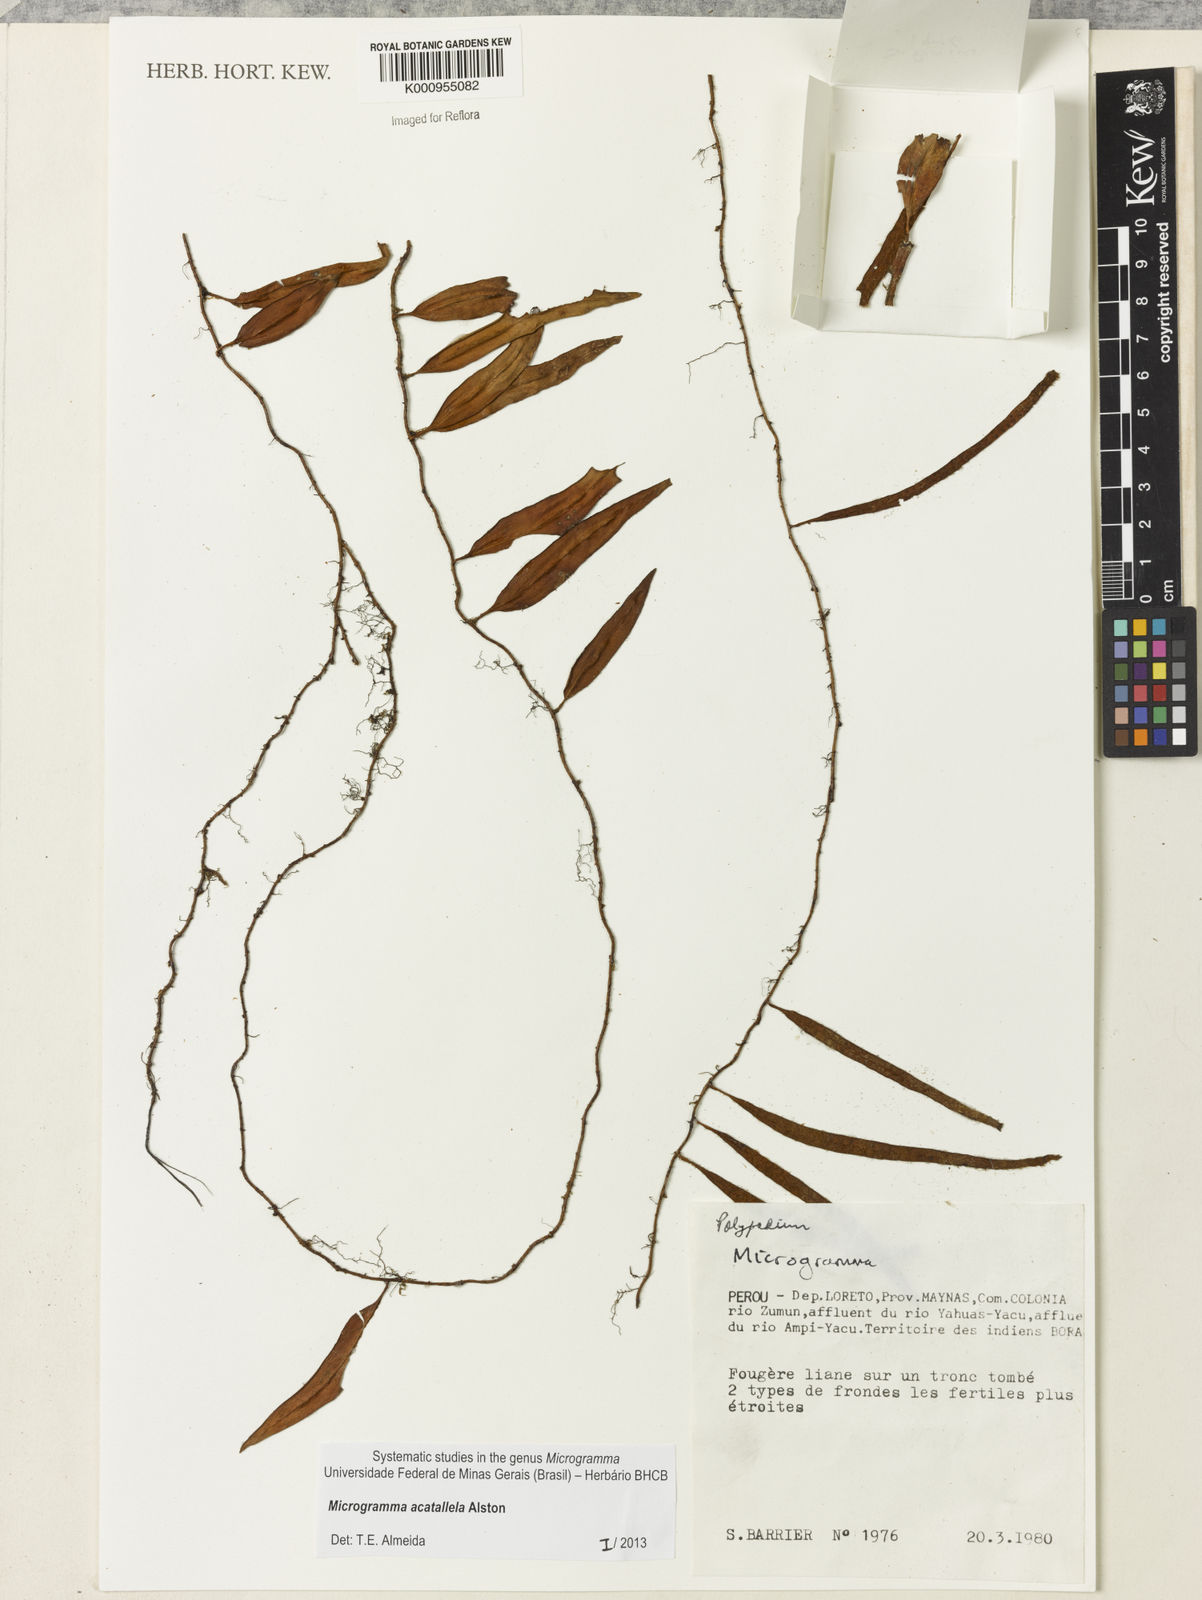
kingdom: Plantae
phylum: Tracheophyta
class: Polypodiopsida
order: Polypodiales
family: Polypodiaceae
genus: Microgramma
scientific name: Microgramma tobagensis
